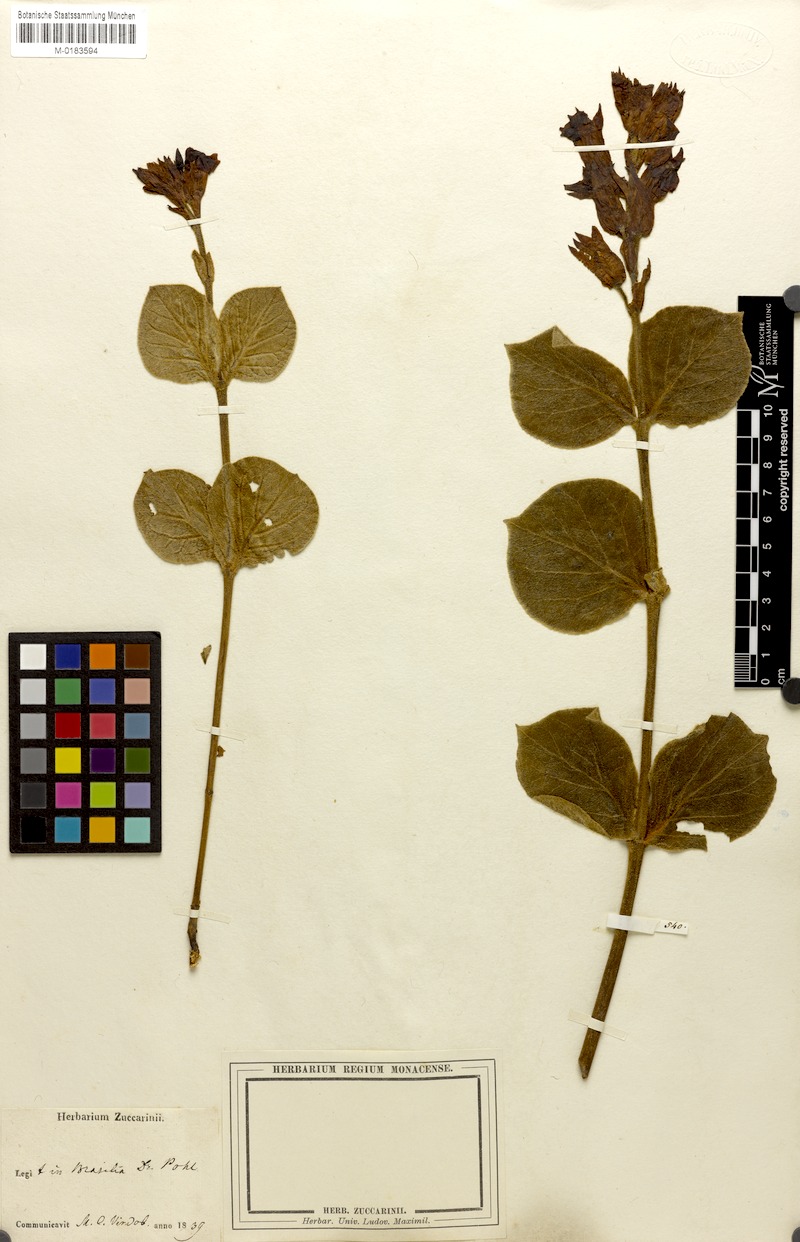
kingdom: Plantae
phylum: Tracheophyta
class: Magnoliopsida
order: Gentianales
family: Apocynaceae
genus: Prestonia
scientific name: Prestonia erecta
